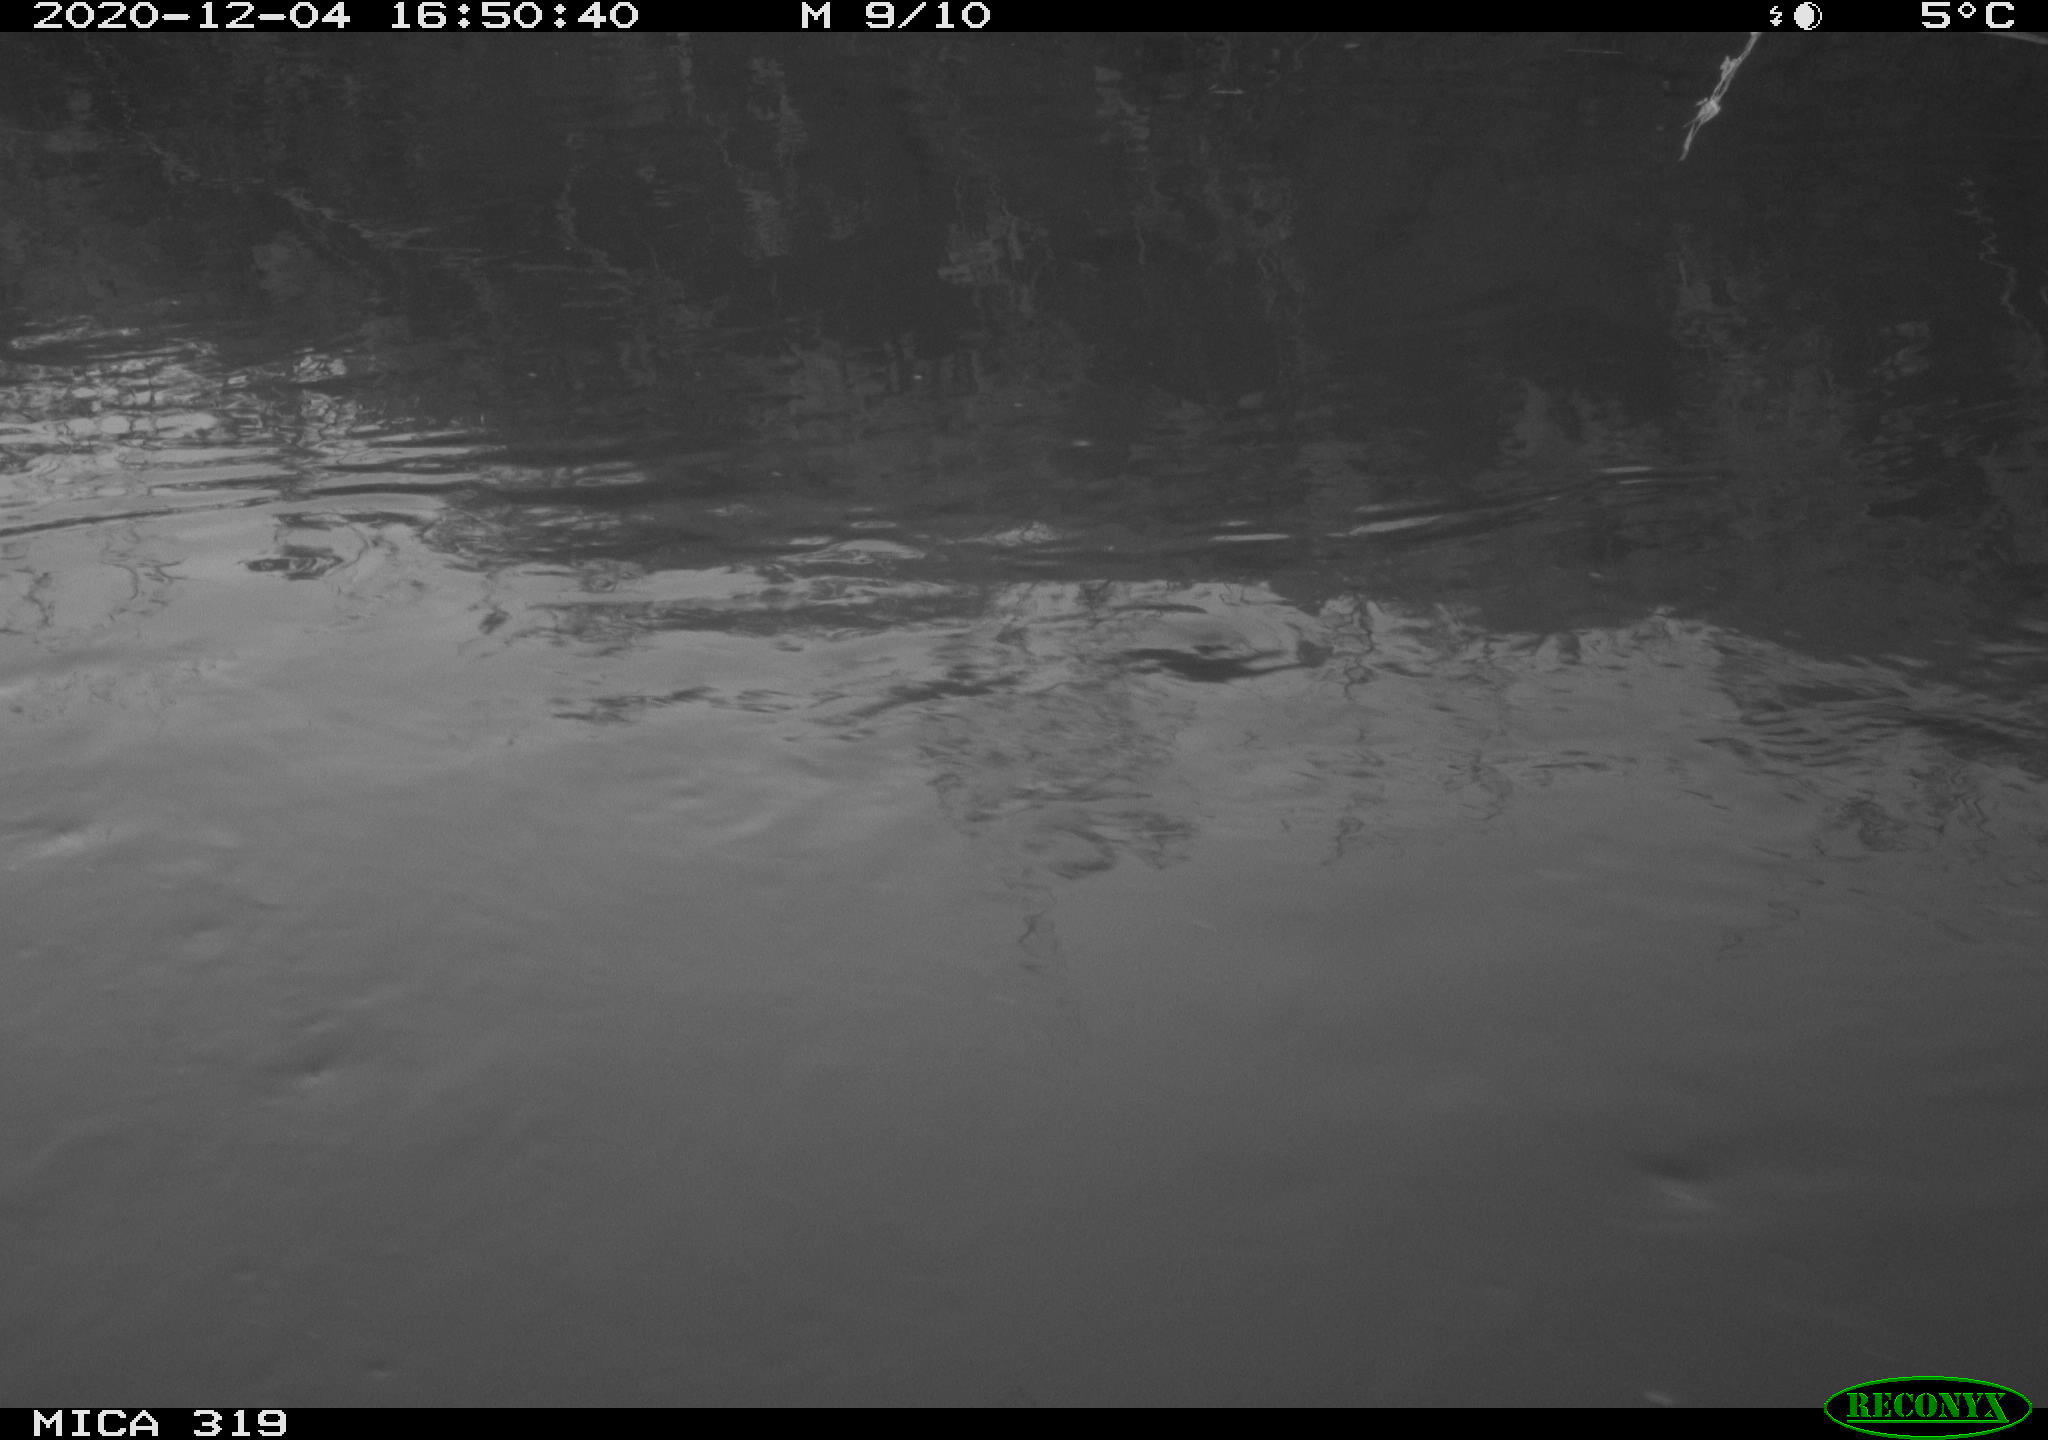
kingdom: Animalia
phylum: Chordata
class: Aves
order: Gruiformes
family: Rallidae
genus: Gallinula
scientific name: Gallinula chloropus
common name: Common moorhen
